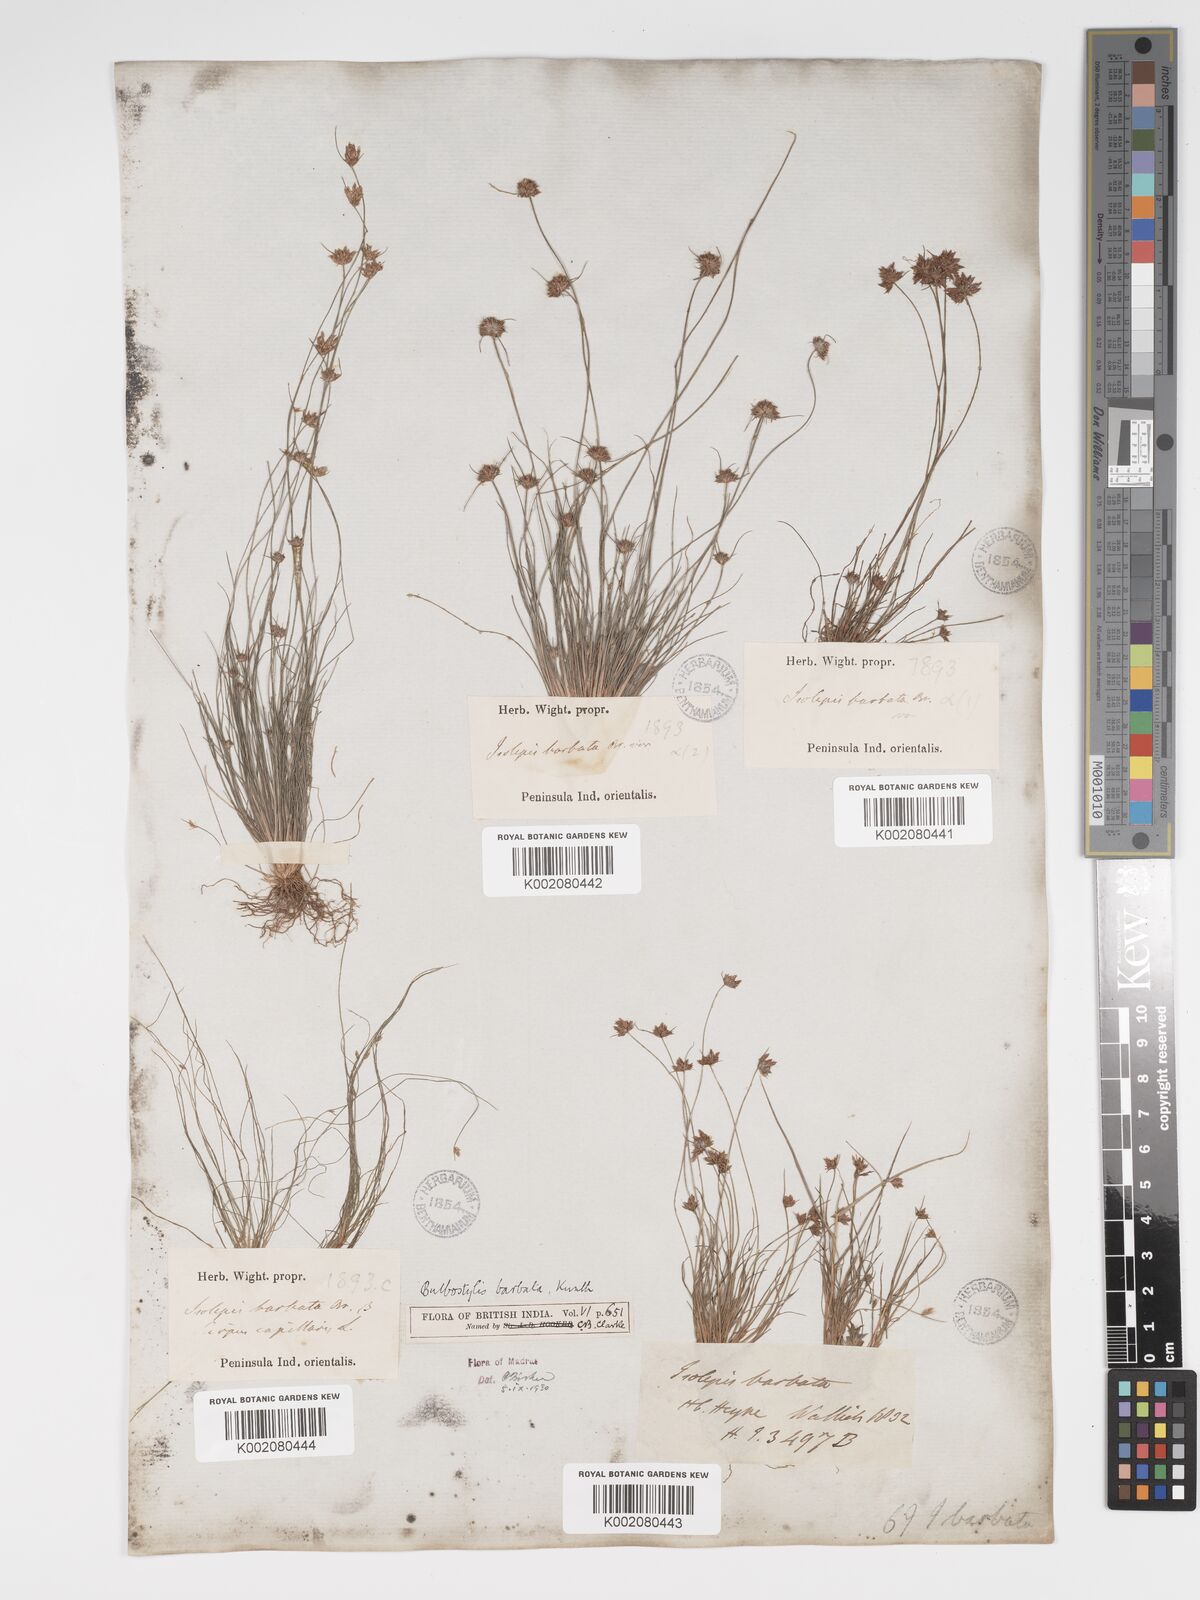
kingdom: Plantae
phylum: Tracheophyta
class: Liliopsida
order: Poales
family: Cyperaceae
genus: Bulbostylis
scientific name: Bulbostylis barbata
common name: Watergrass
